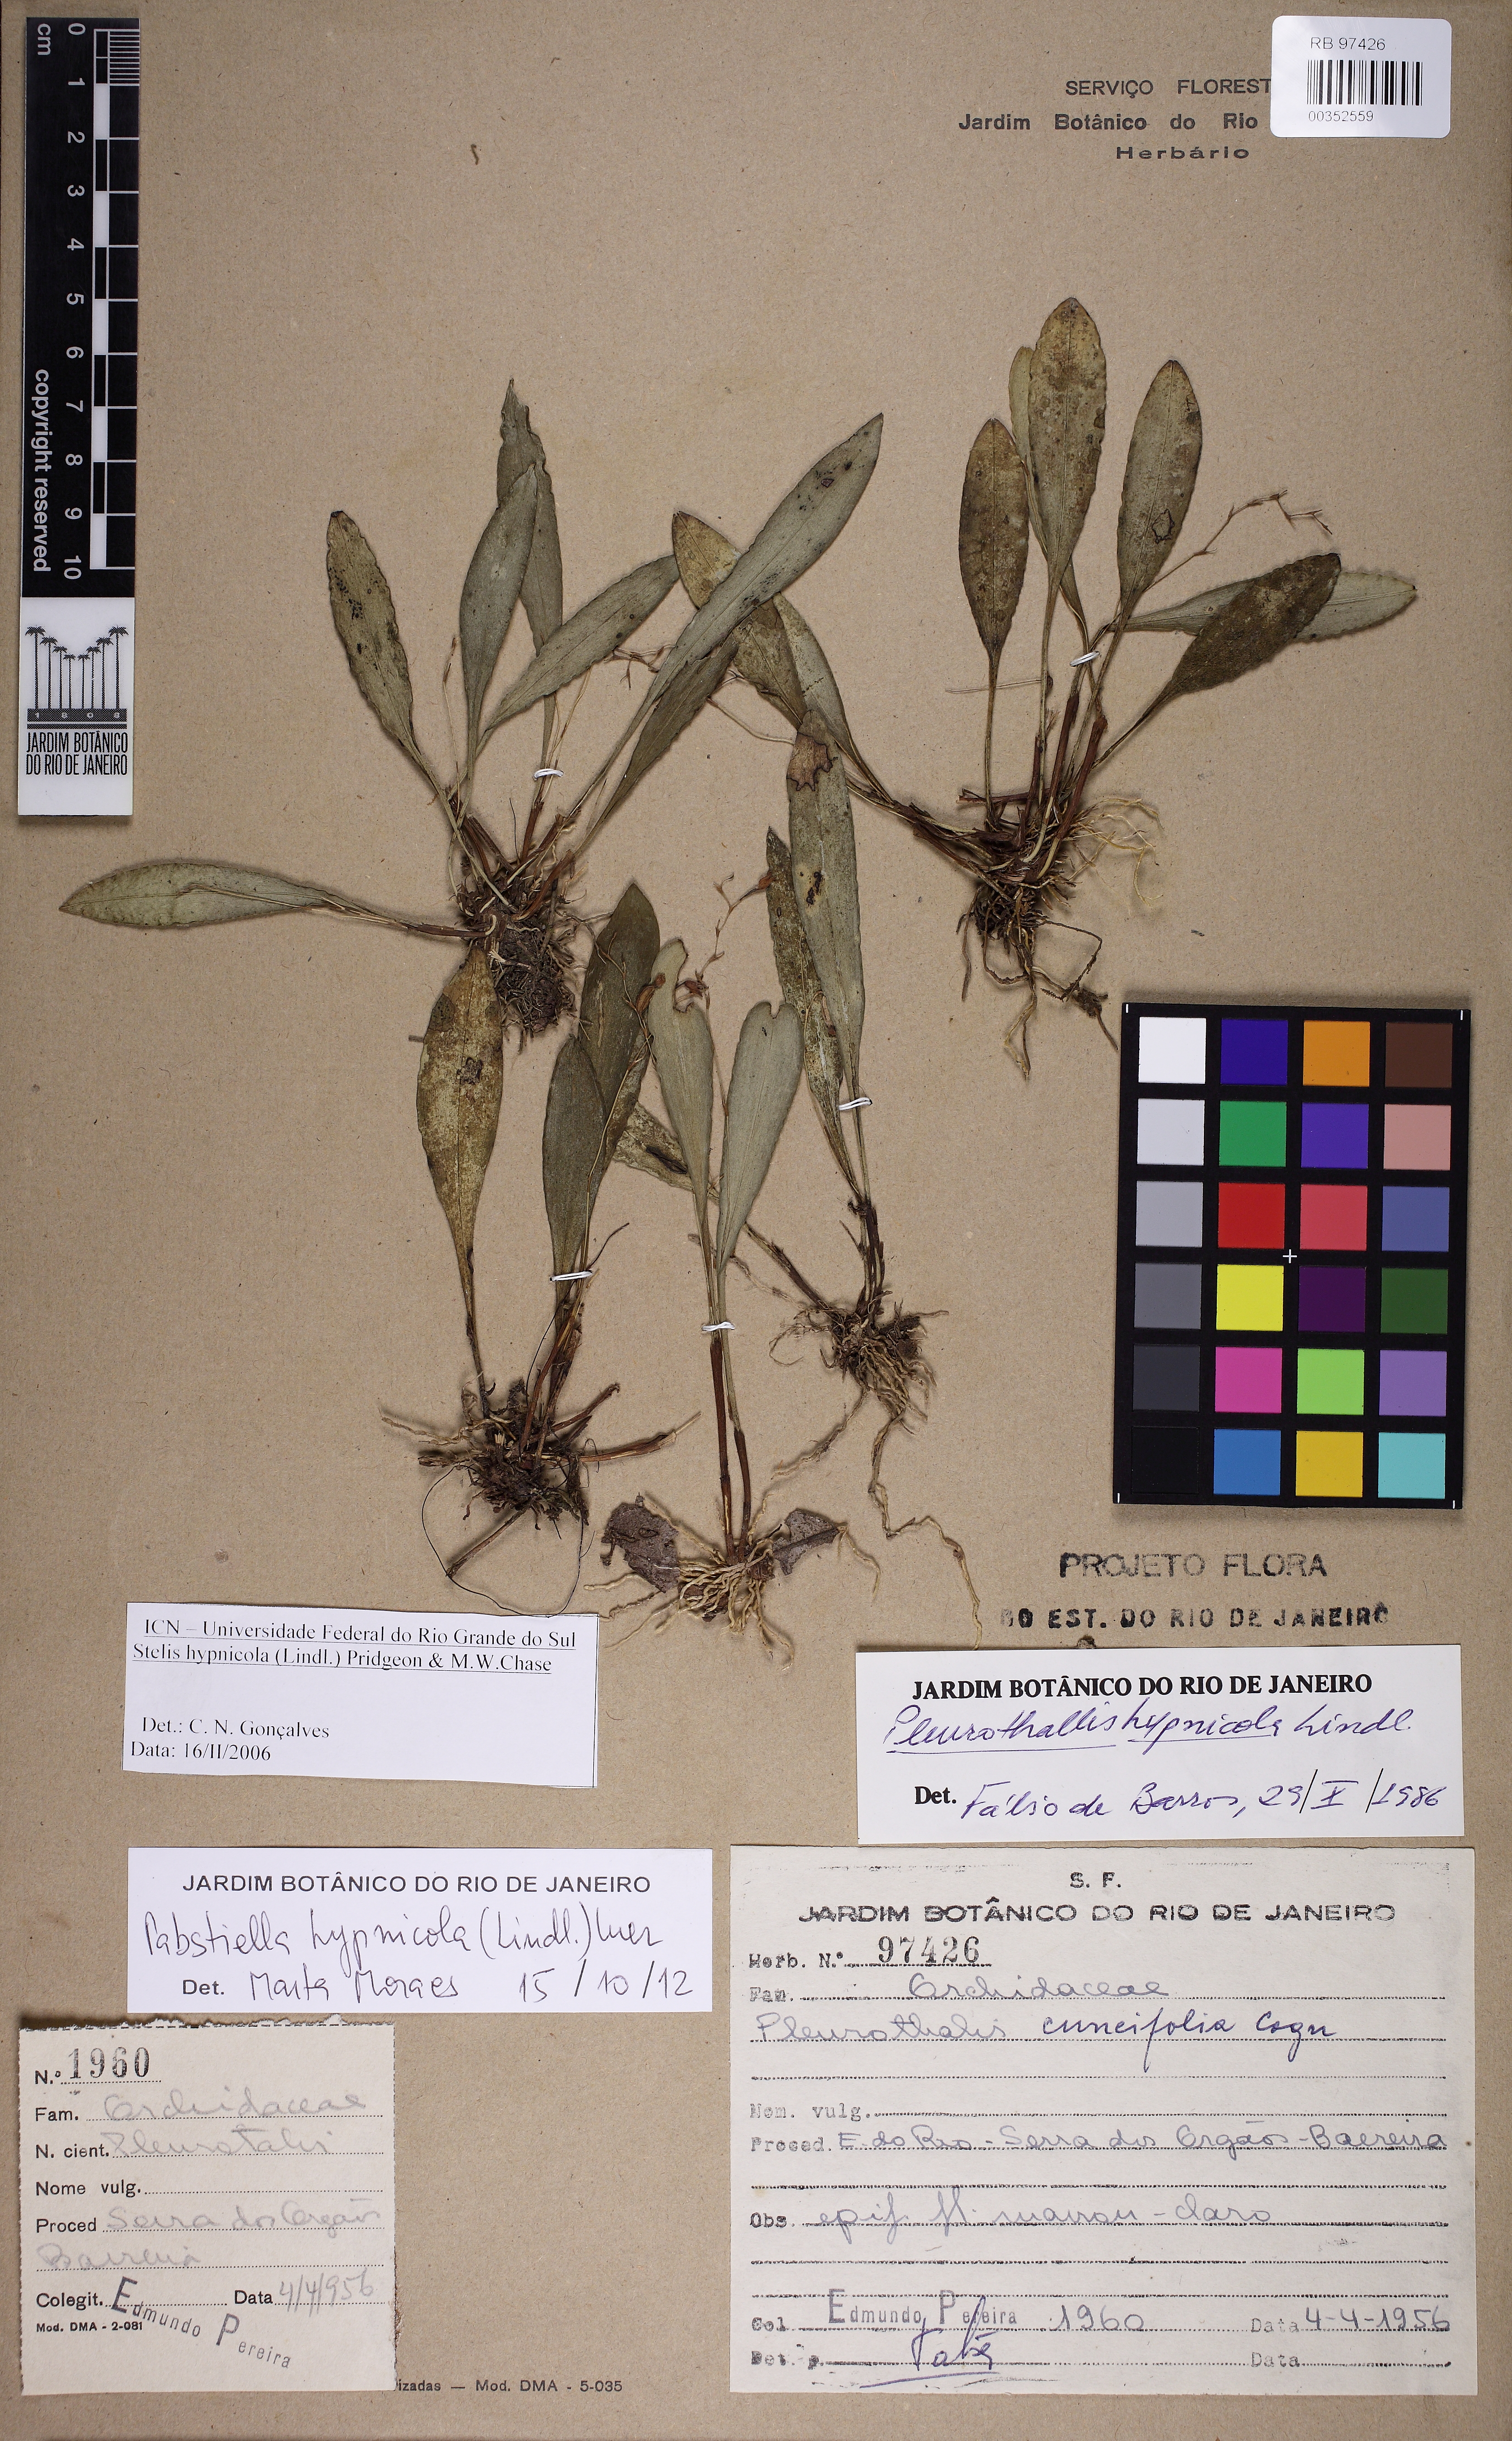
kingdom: Plantae
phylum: Tracheophyta
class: Liliopsida
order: Asparagales
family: Orchidaceae
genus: Pabstiella
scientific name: Pabstiella fusca
